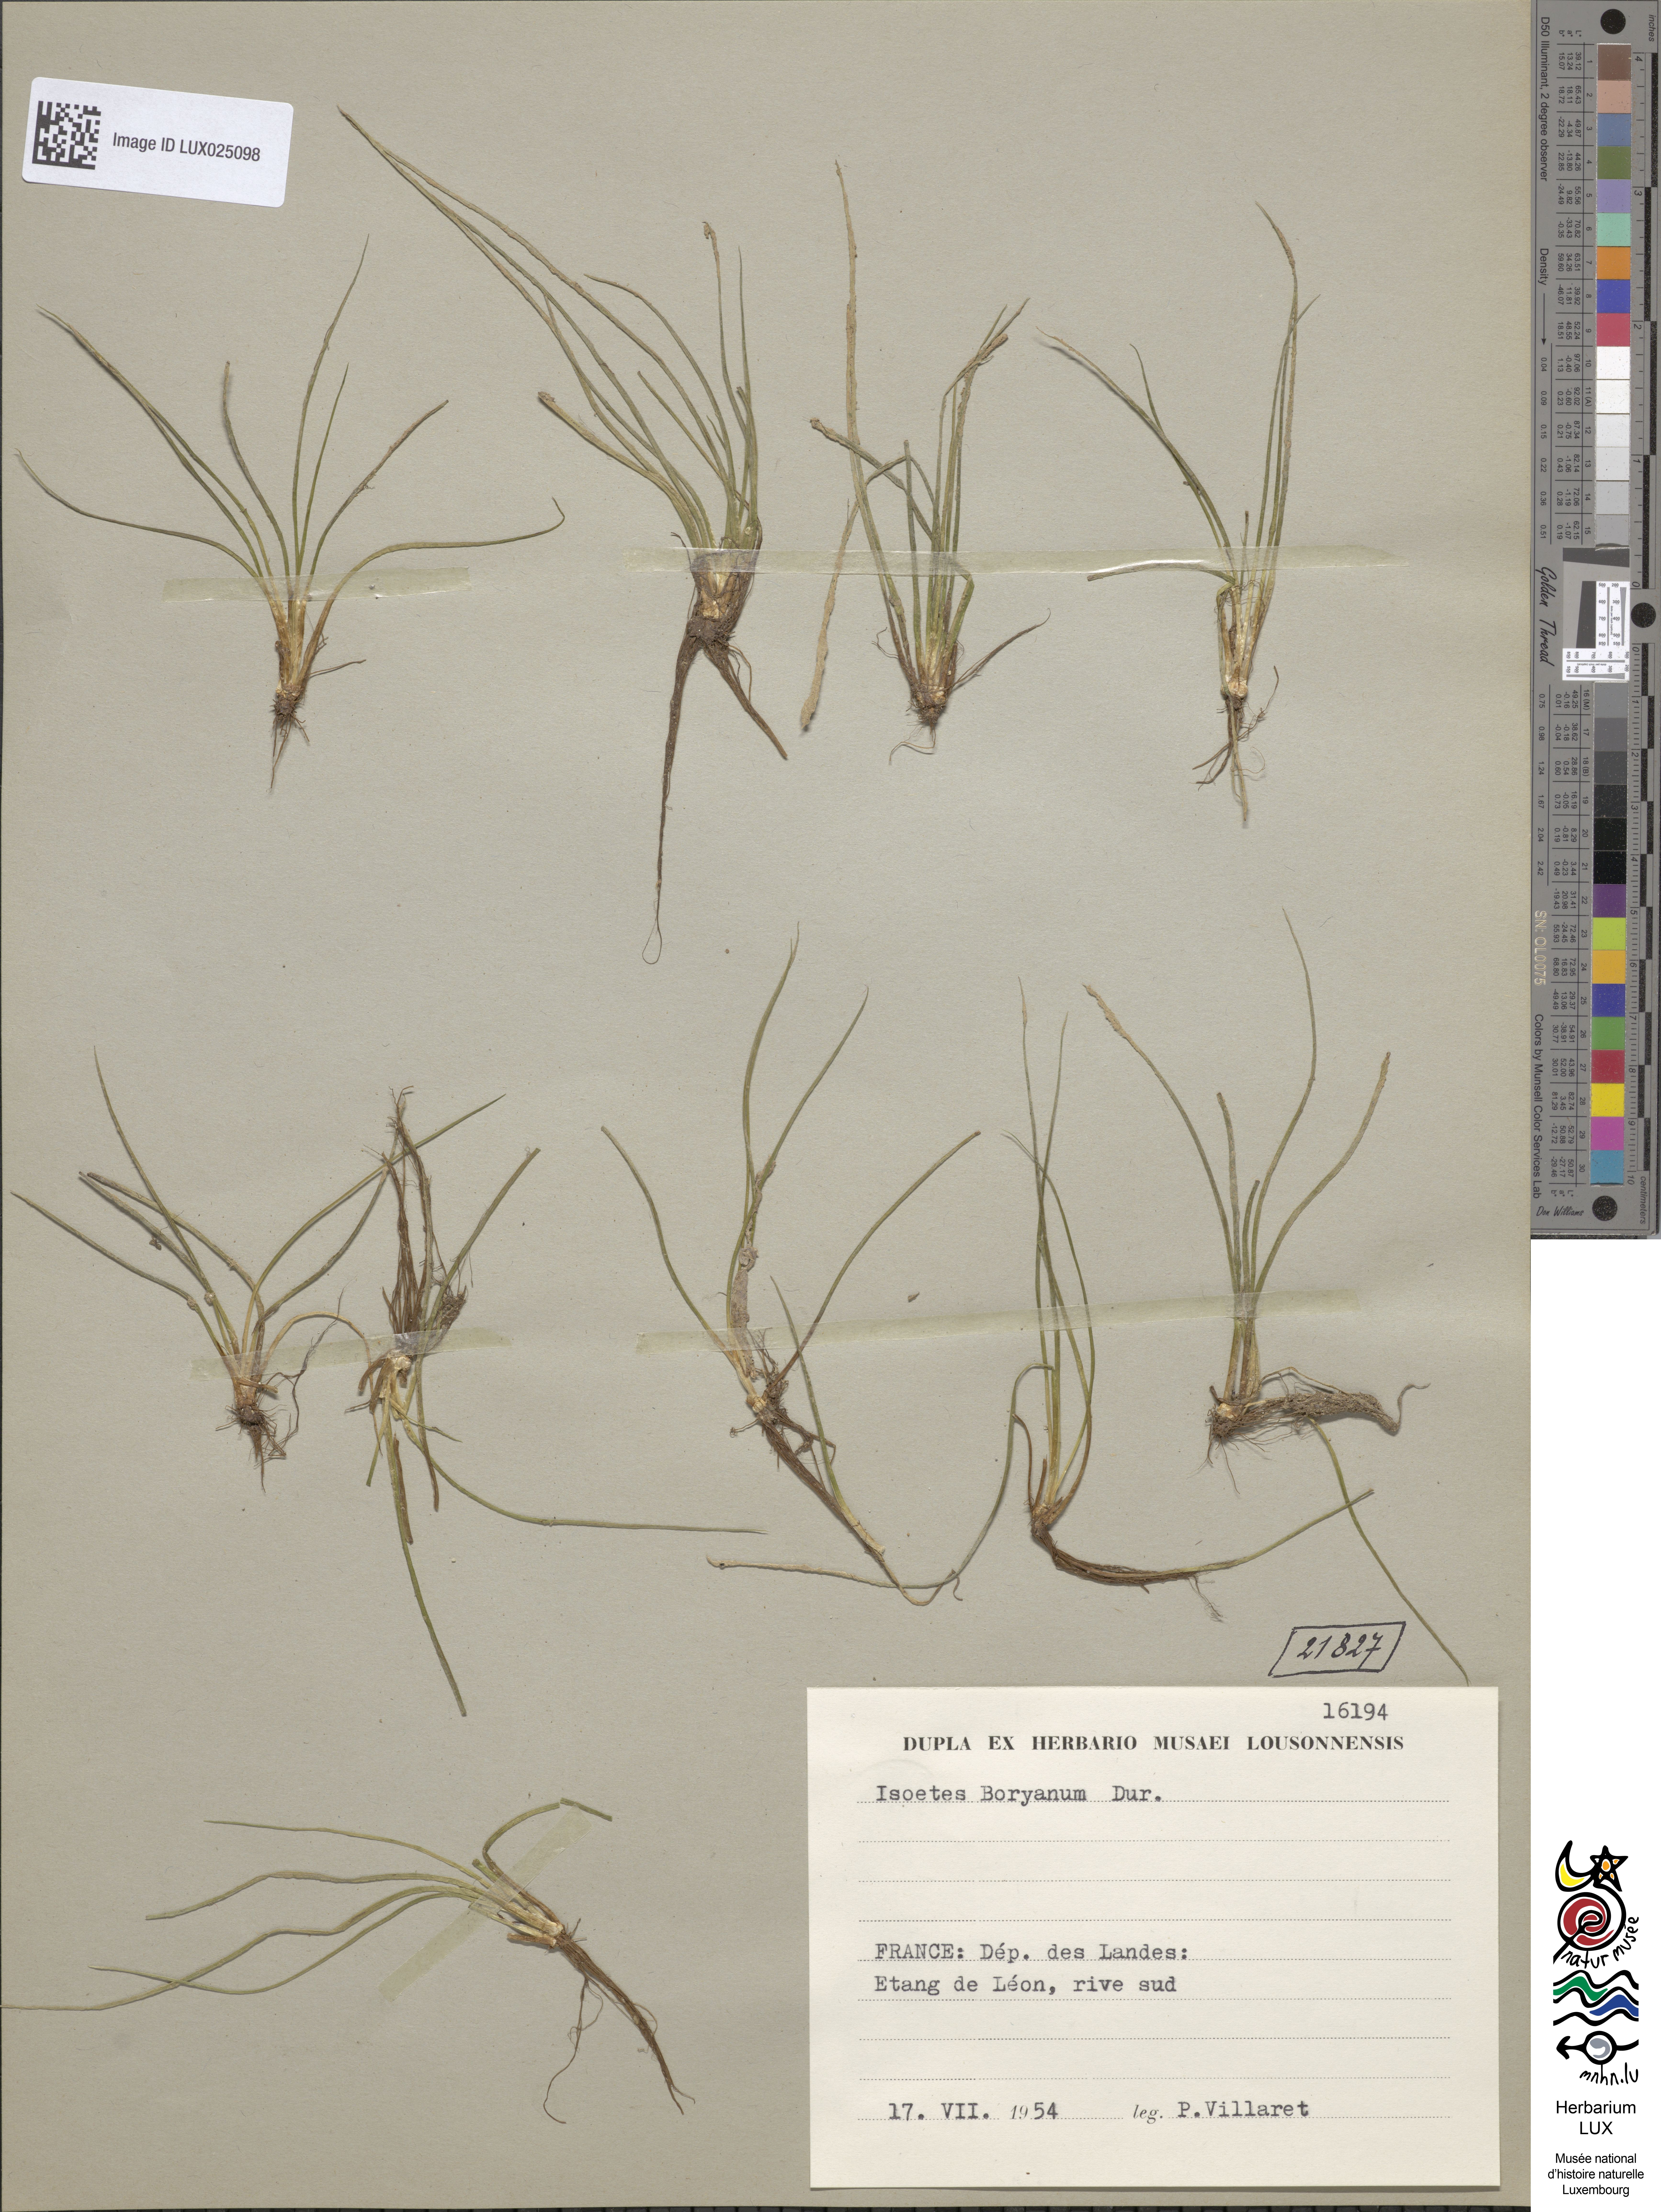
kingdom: Plantae
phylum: Tracheophyta
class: Lycopodiopsida
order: Isoetales
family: Isoetaceae
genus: Isoetes
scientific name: Isoetes boryana
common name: Gascoyne quillwort
